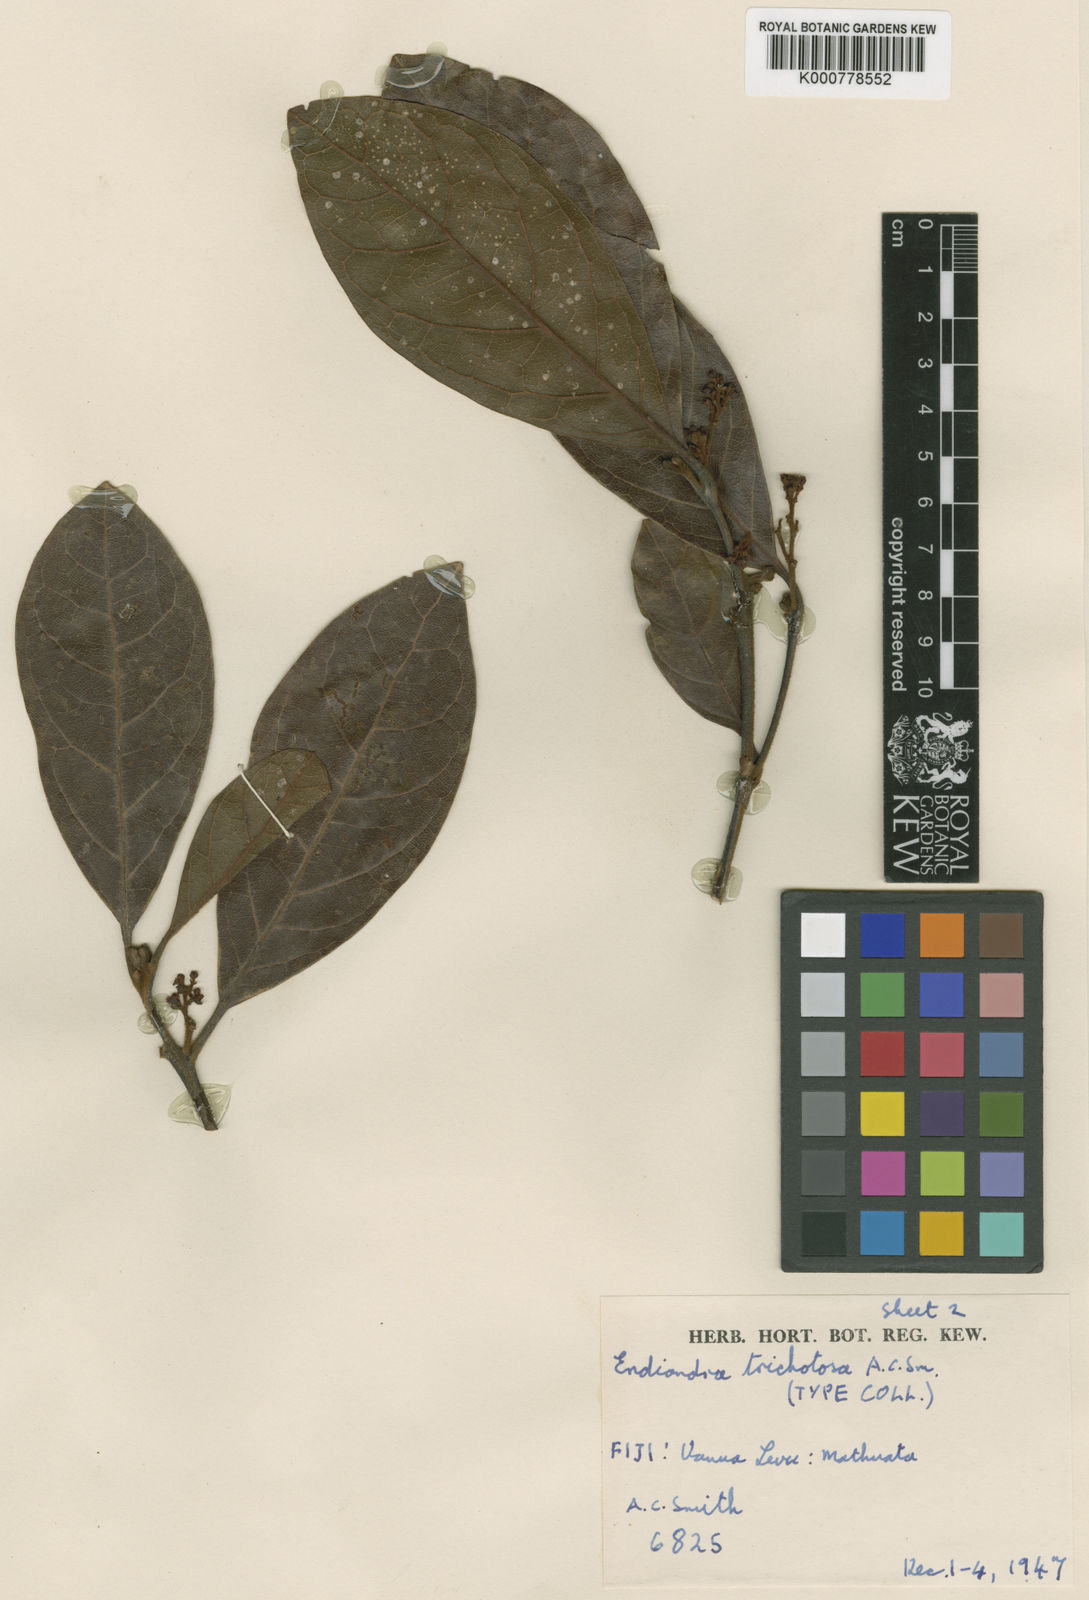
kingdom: Plantae
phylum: Tracheophyta
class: Magnoliopsida
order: Laurales
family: Lauraceae
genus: Endiandra
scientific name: Endiandra trichotosa
